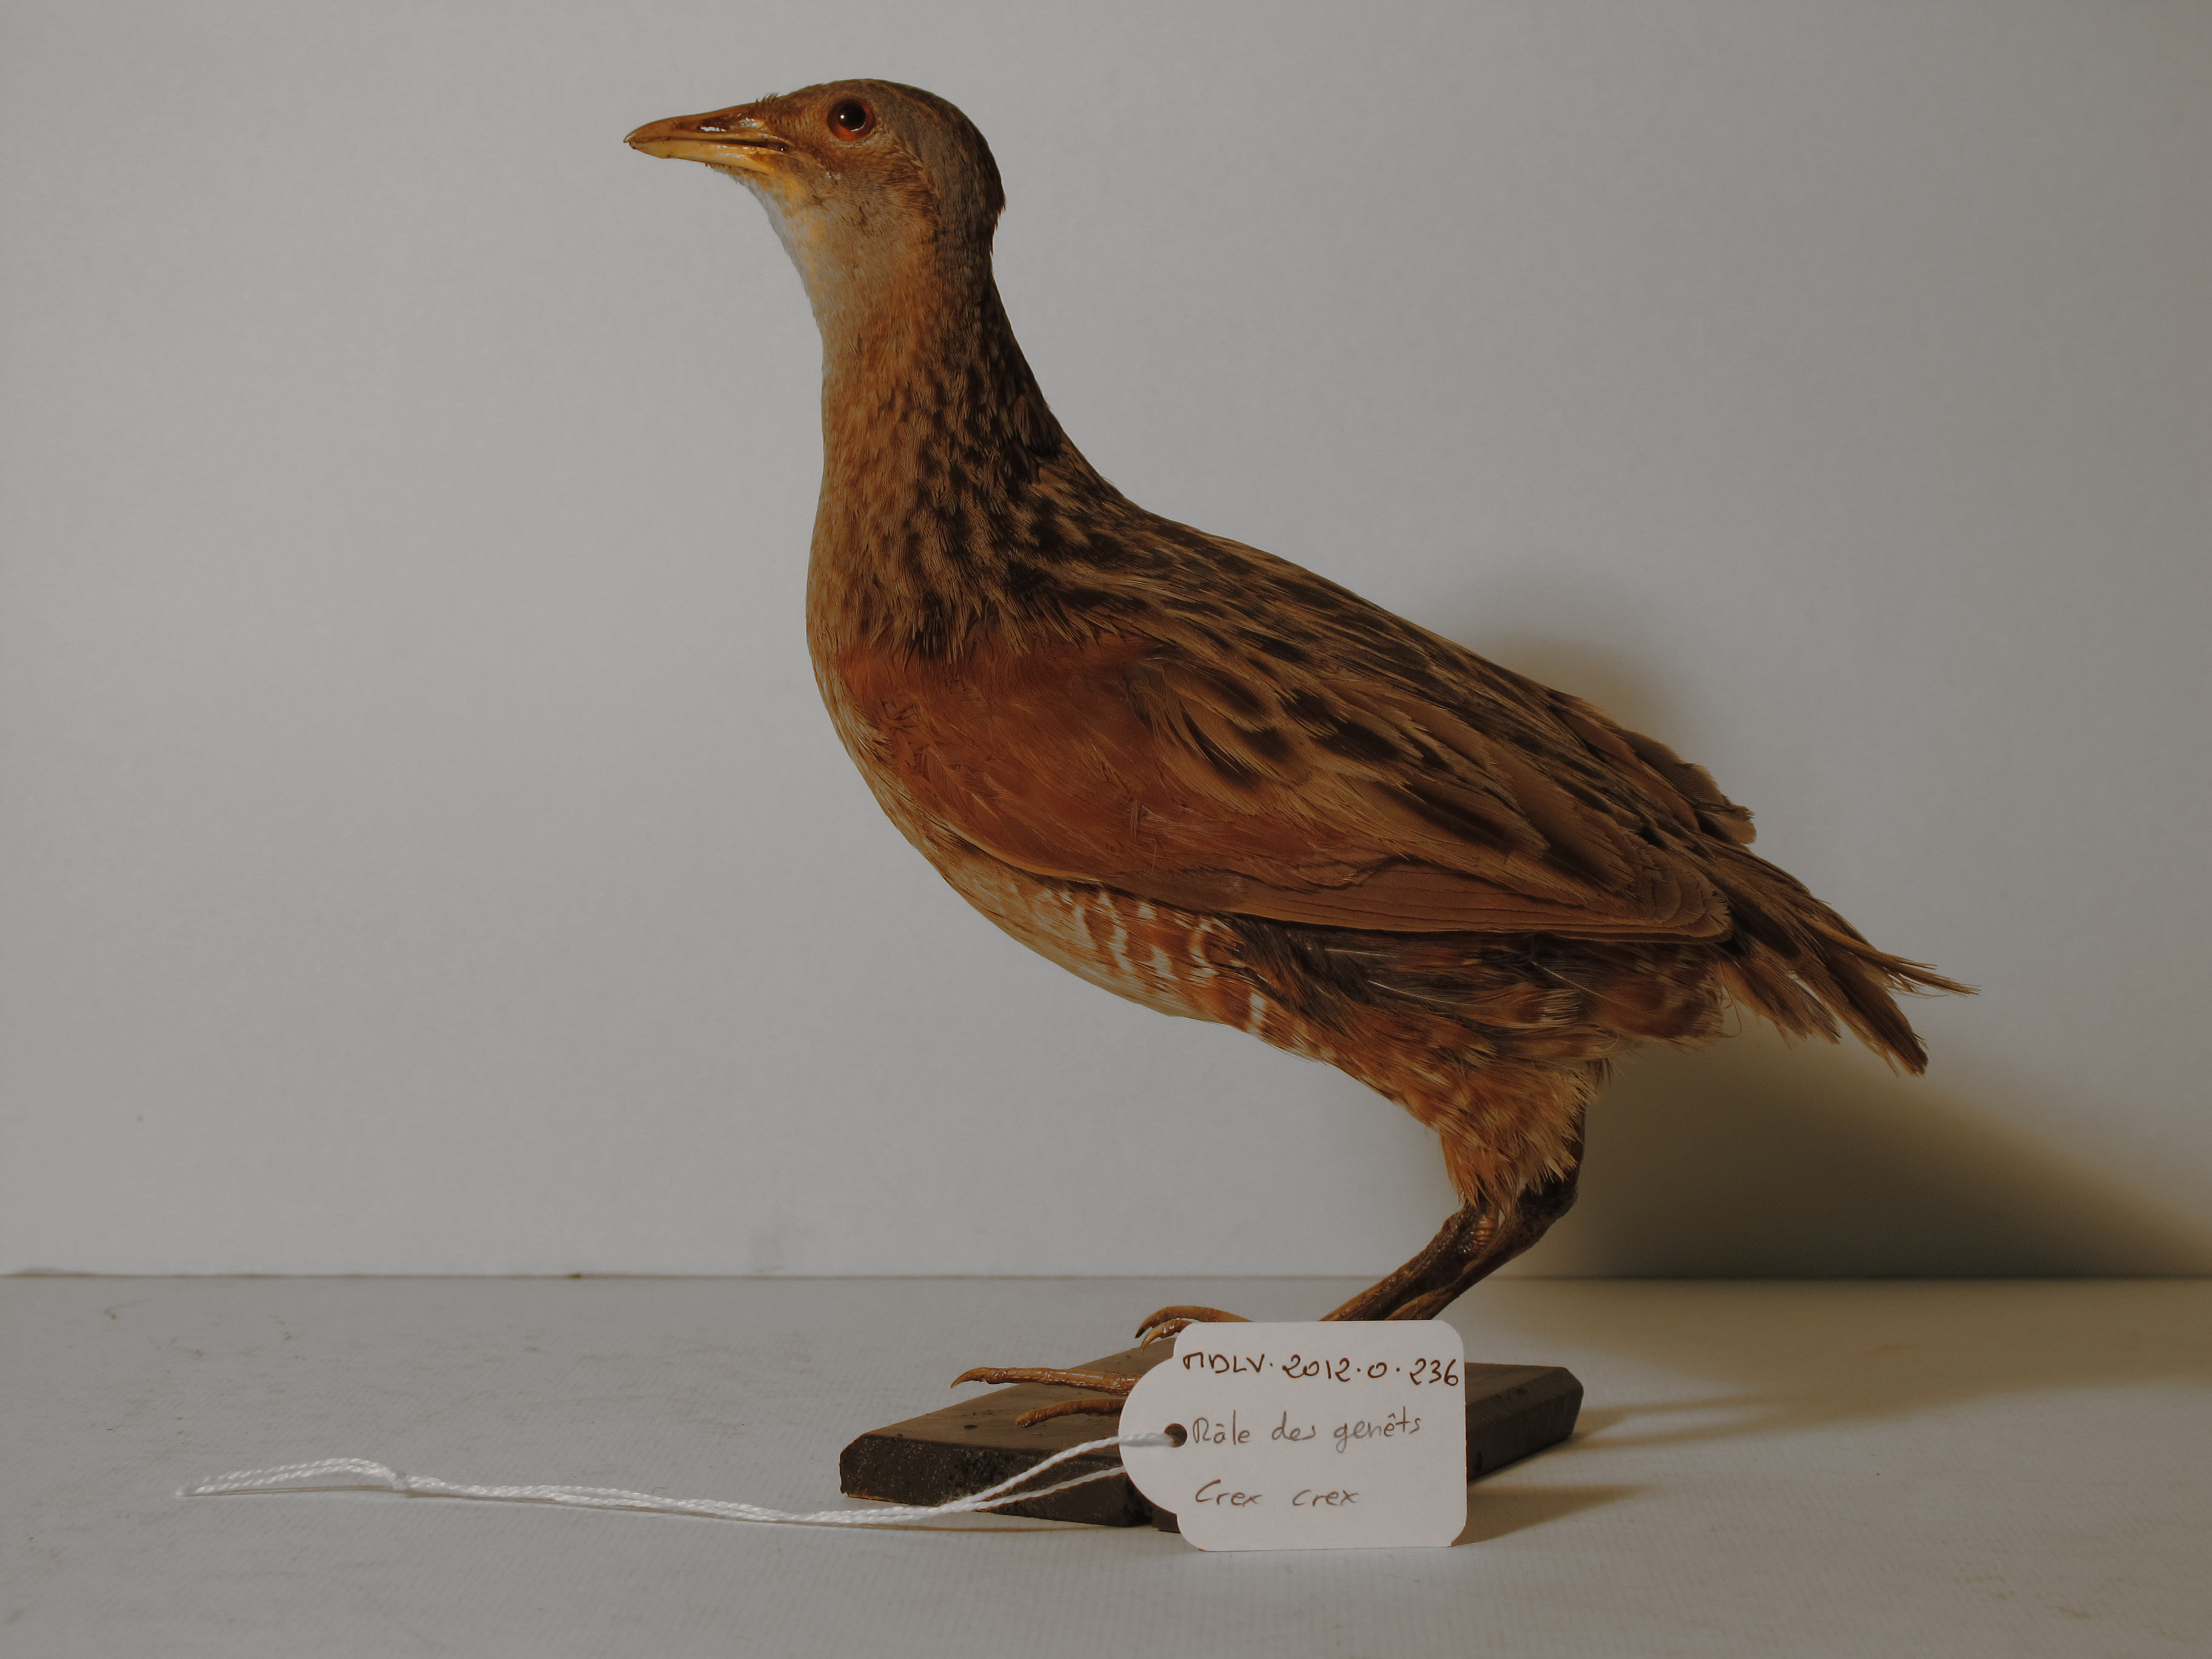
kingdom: Animalia
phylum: Chordata
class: Aves
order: Gruiformes
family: Rallidae
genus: Crex
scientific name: Crex crex
